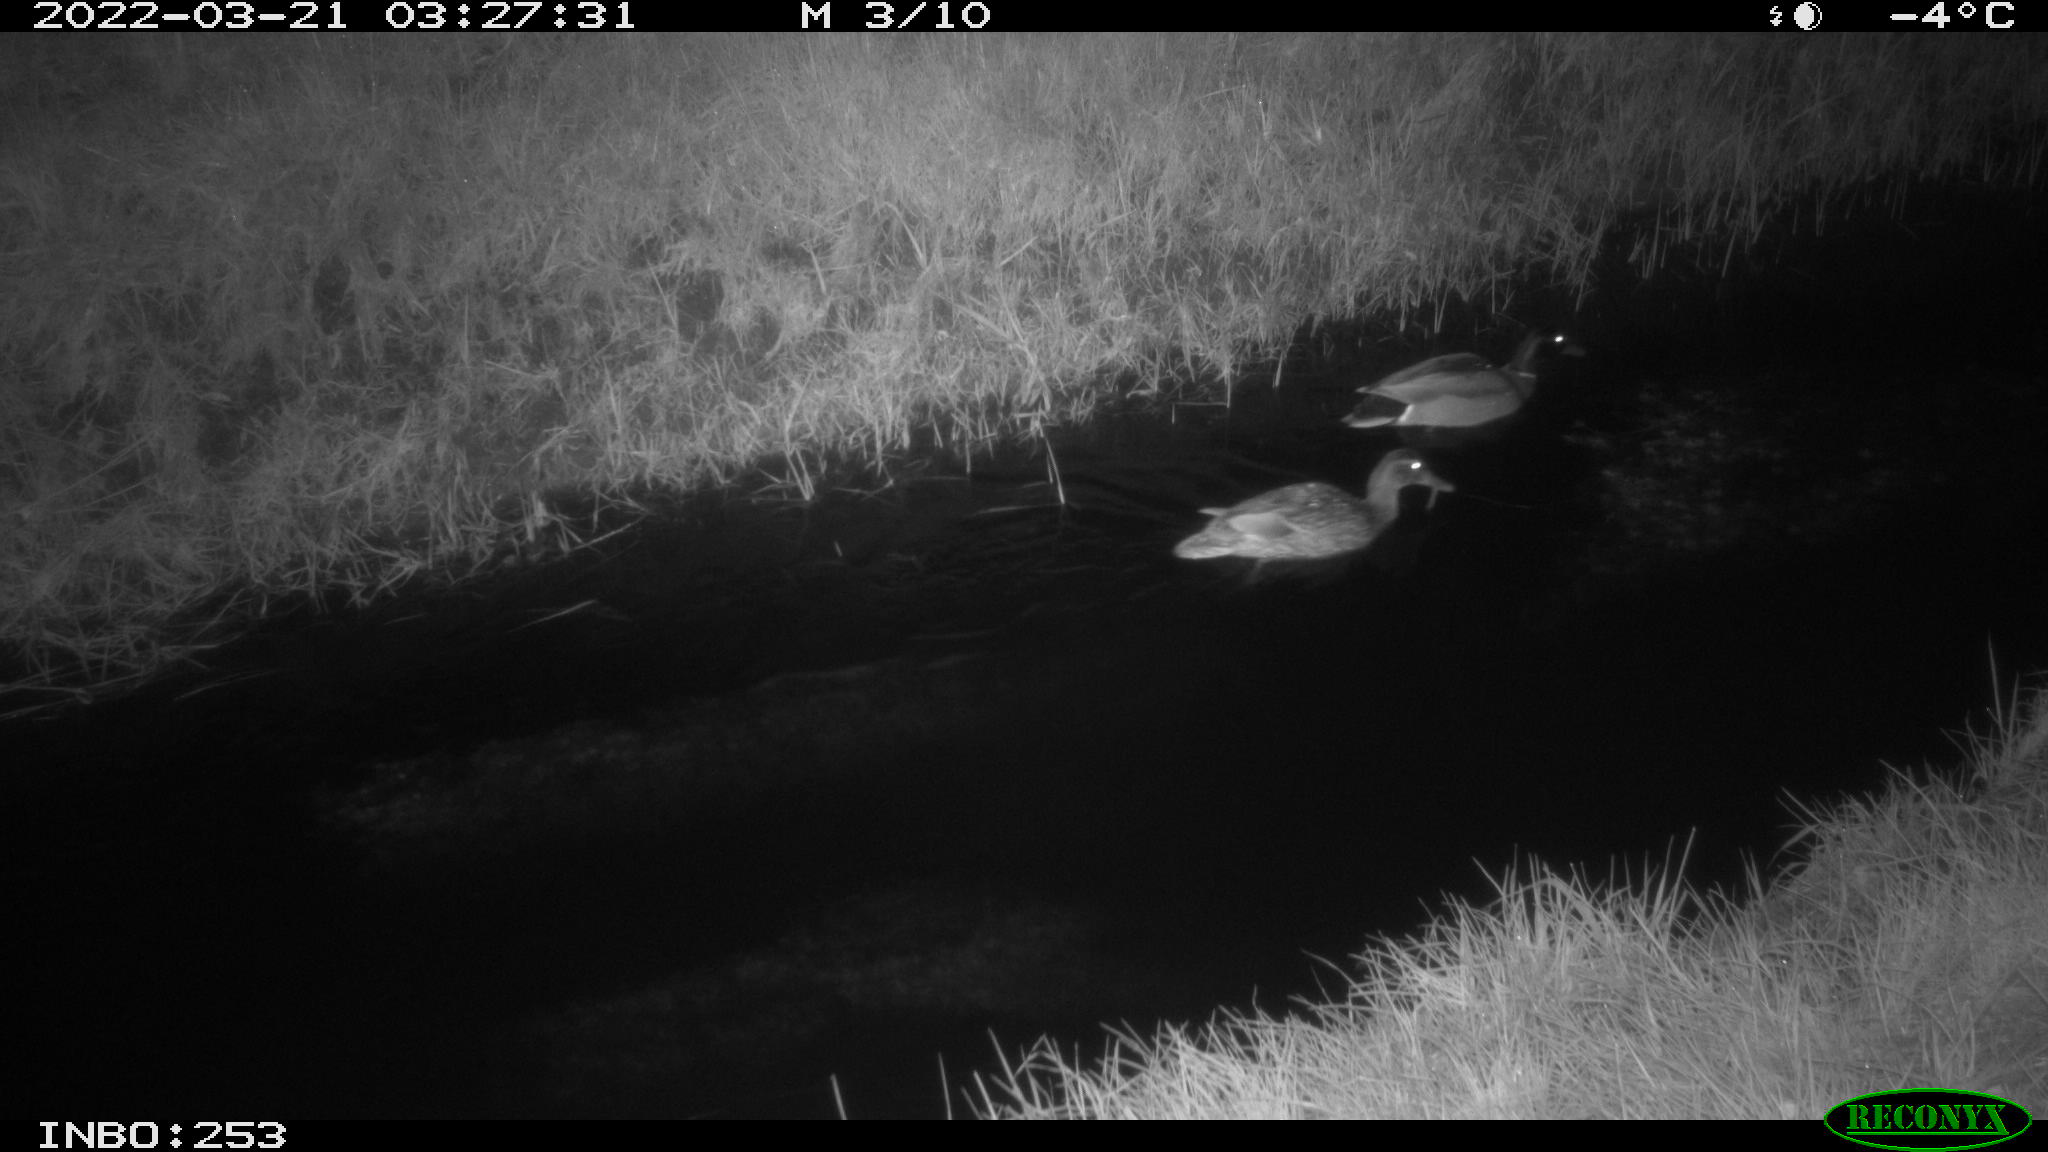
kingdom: Animalia
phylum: Chordata
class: Aves
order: Anseriformes
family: Anatidae
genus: Anas
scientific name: Anas platyrhynchos
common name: Mallard
